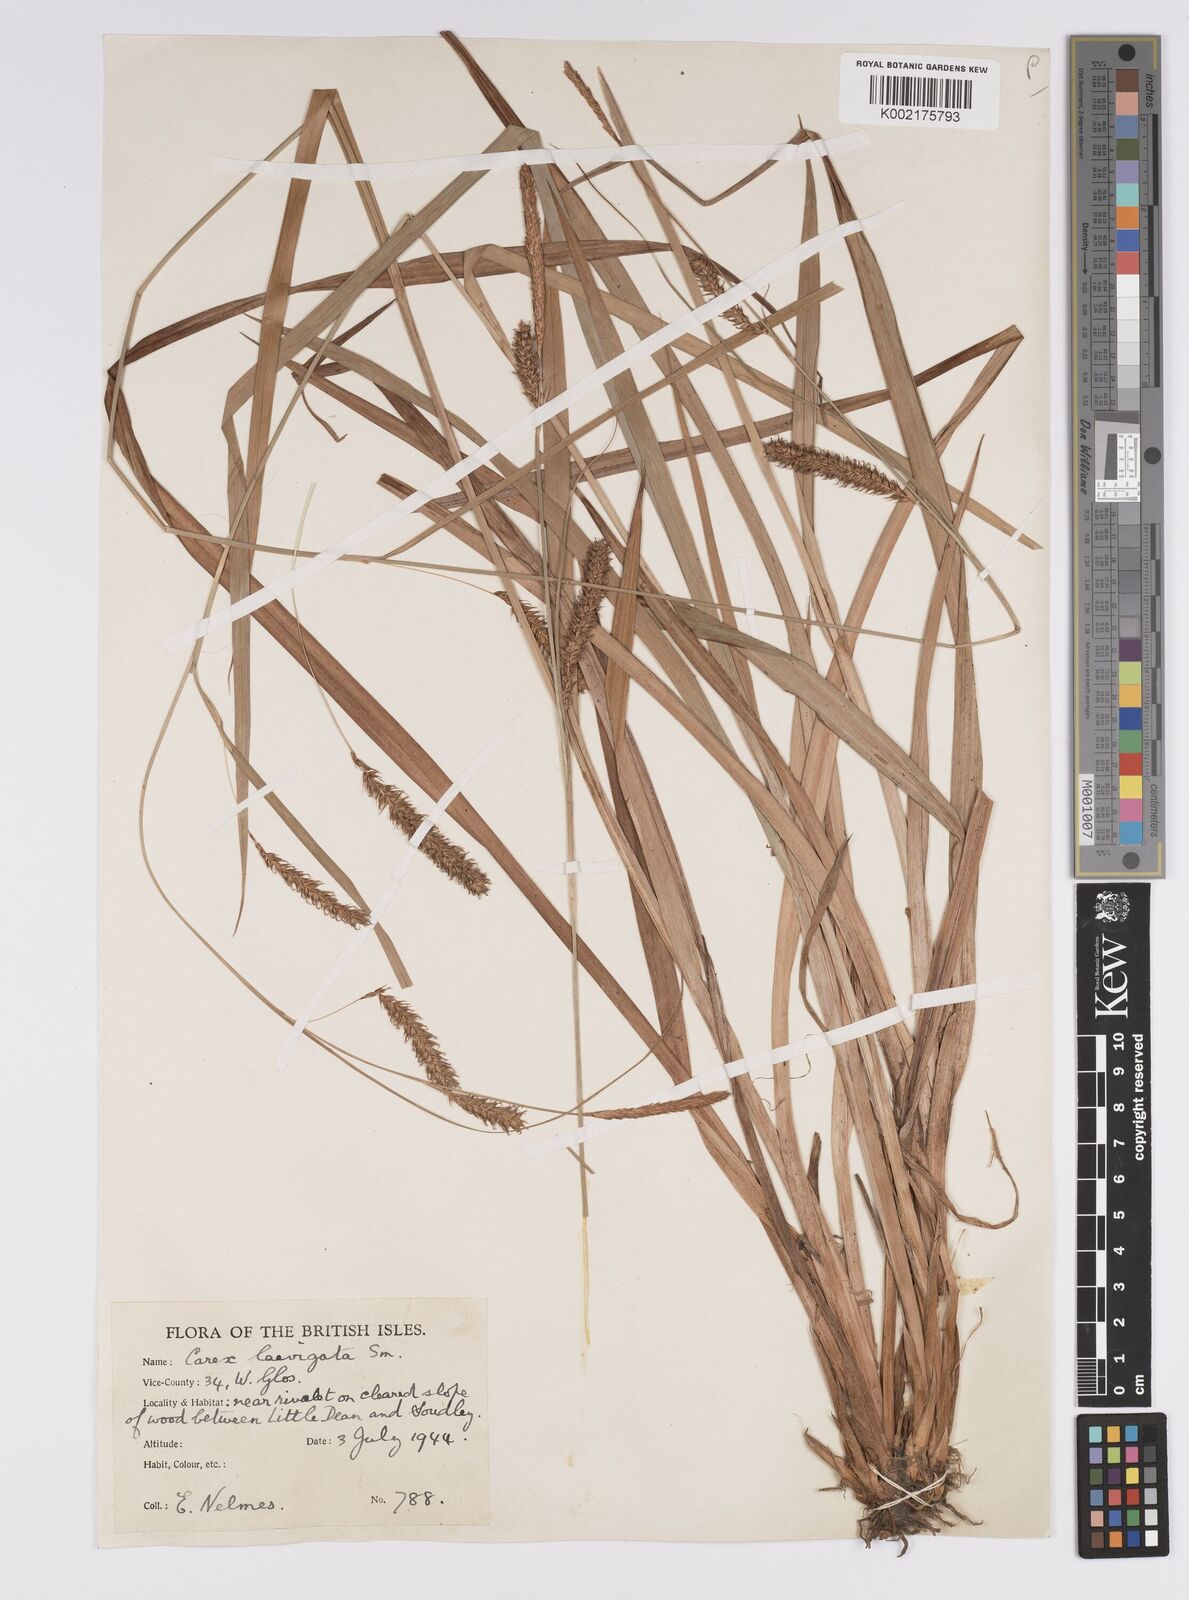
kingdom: Plantae
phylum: Tracheophyta
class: Liliopsida
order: Poales
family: Cyperaceae
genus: Carex
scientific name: Carex laevigata
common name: Smooth-stalked sedge
